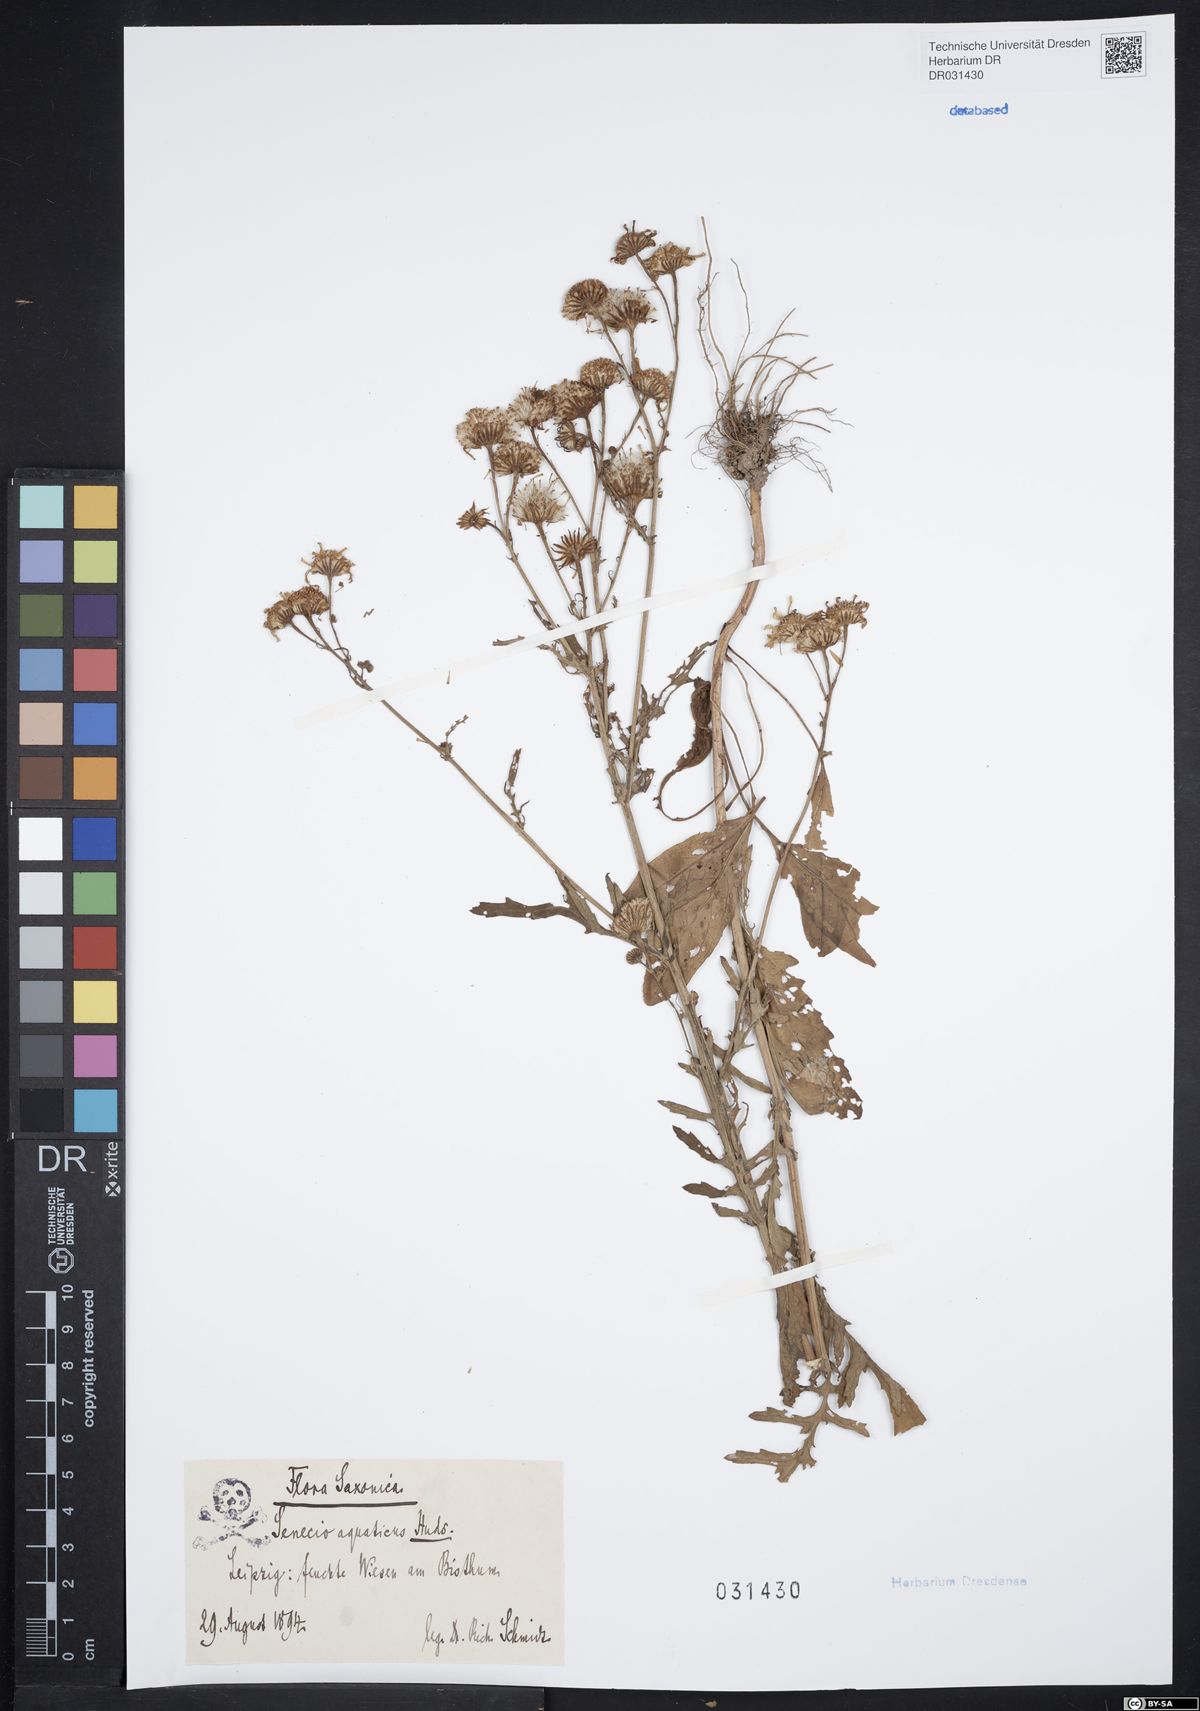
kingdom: Plantae
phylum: Tracheophyta
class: Magnoliopsida
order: Asterales
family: Asteraceae
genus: Jacobaea
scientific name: Jacobaea aquatica
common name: Water ragwort
